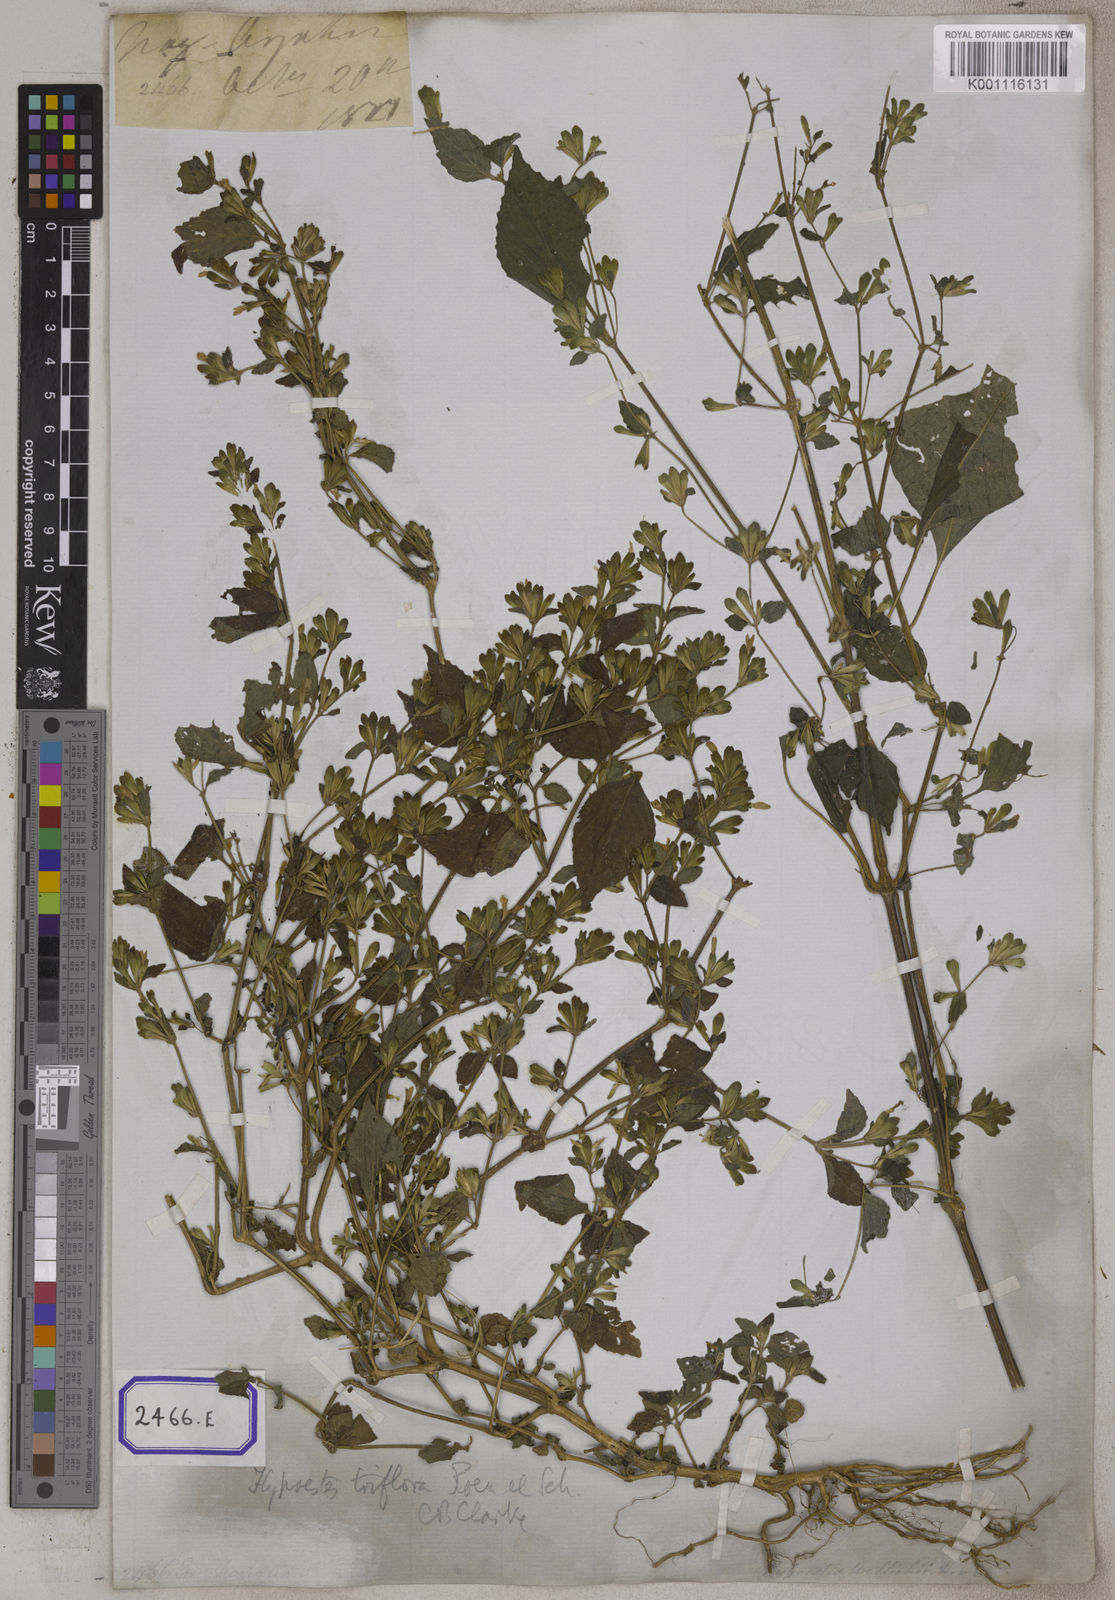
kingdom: Plantae
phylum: Tracheophyta
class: Magnoliopsida
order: Lamiales
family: Acanthaceae
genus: Dicliptera
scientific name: Dicliptera chinensis
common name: Chinese foldwing
